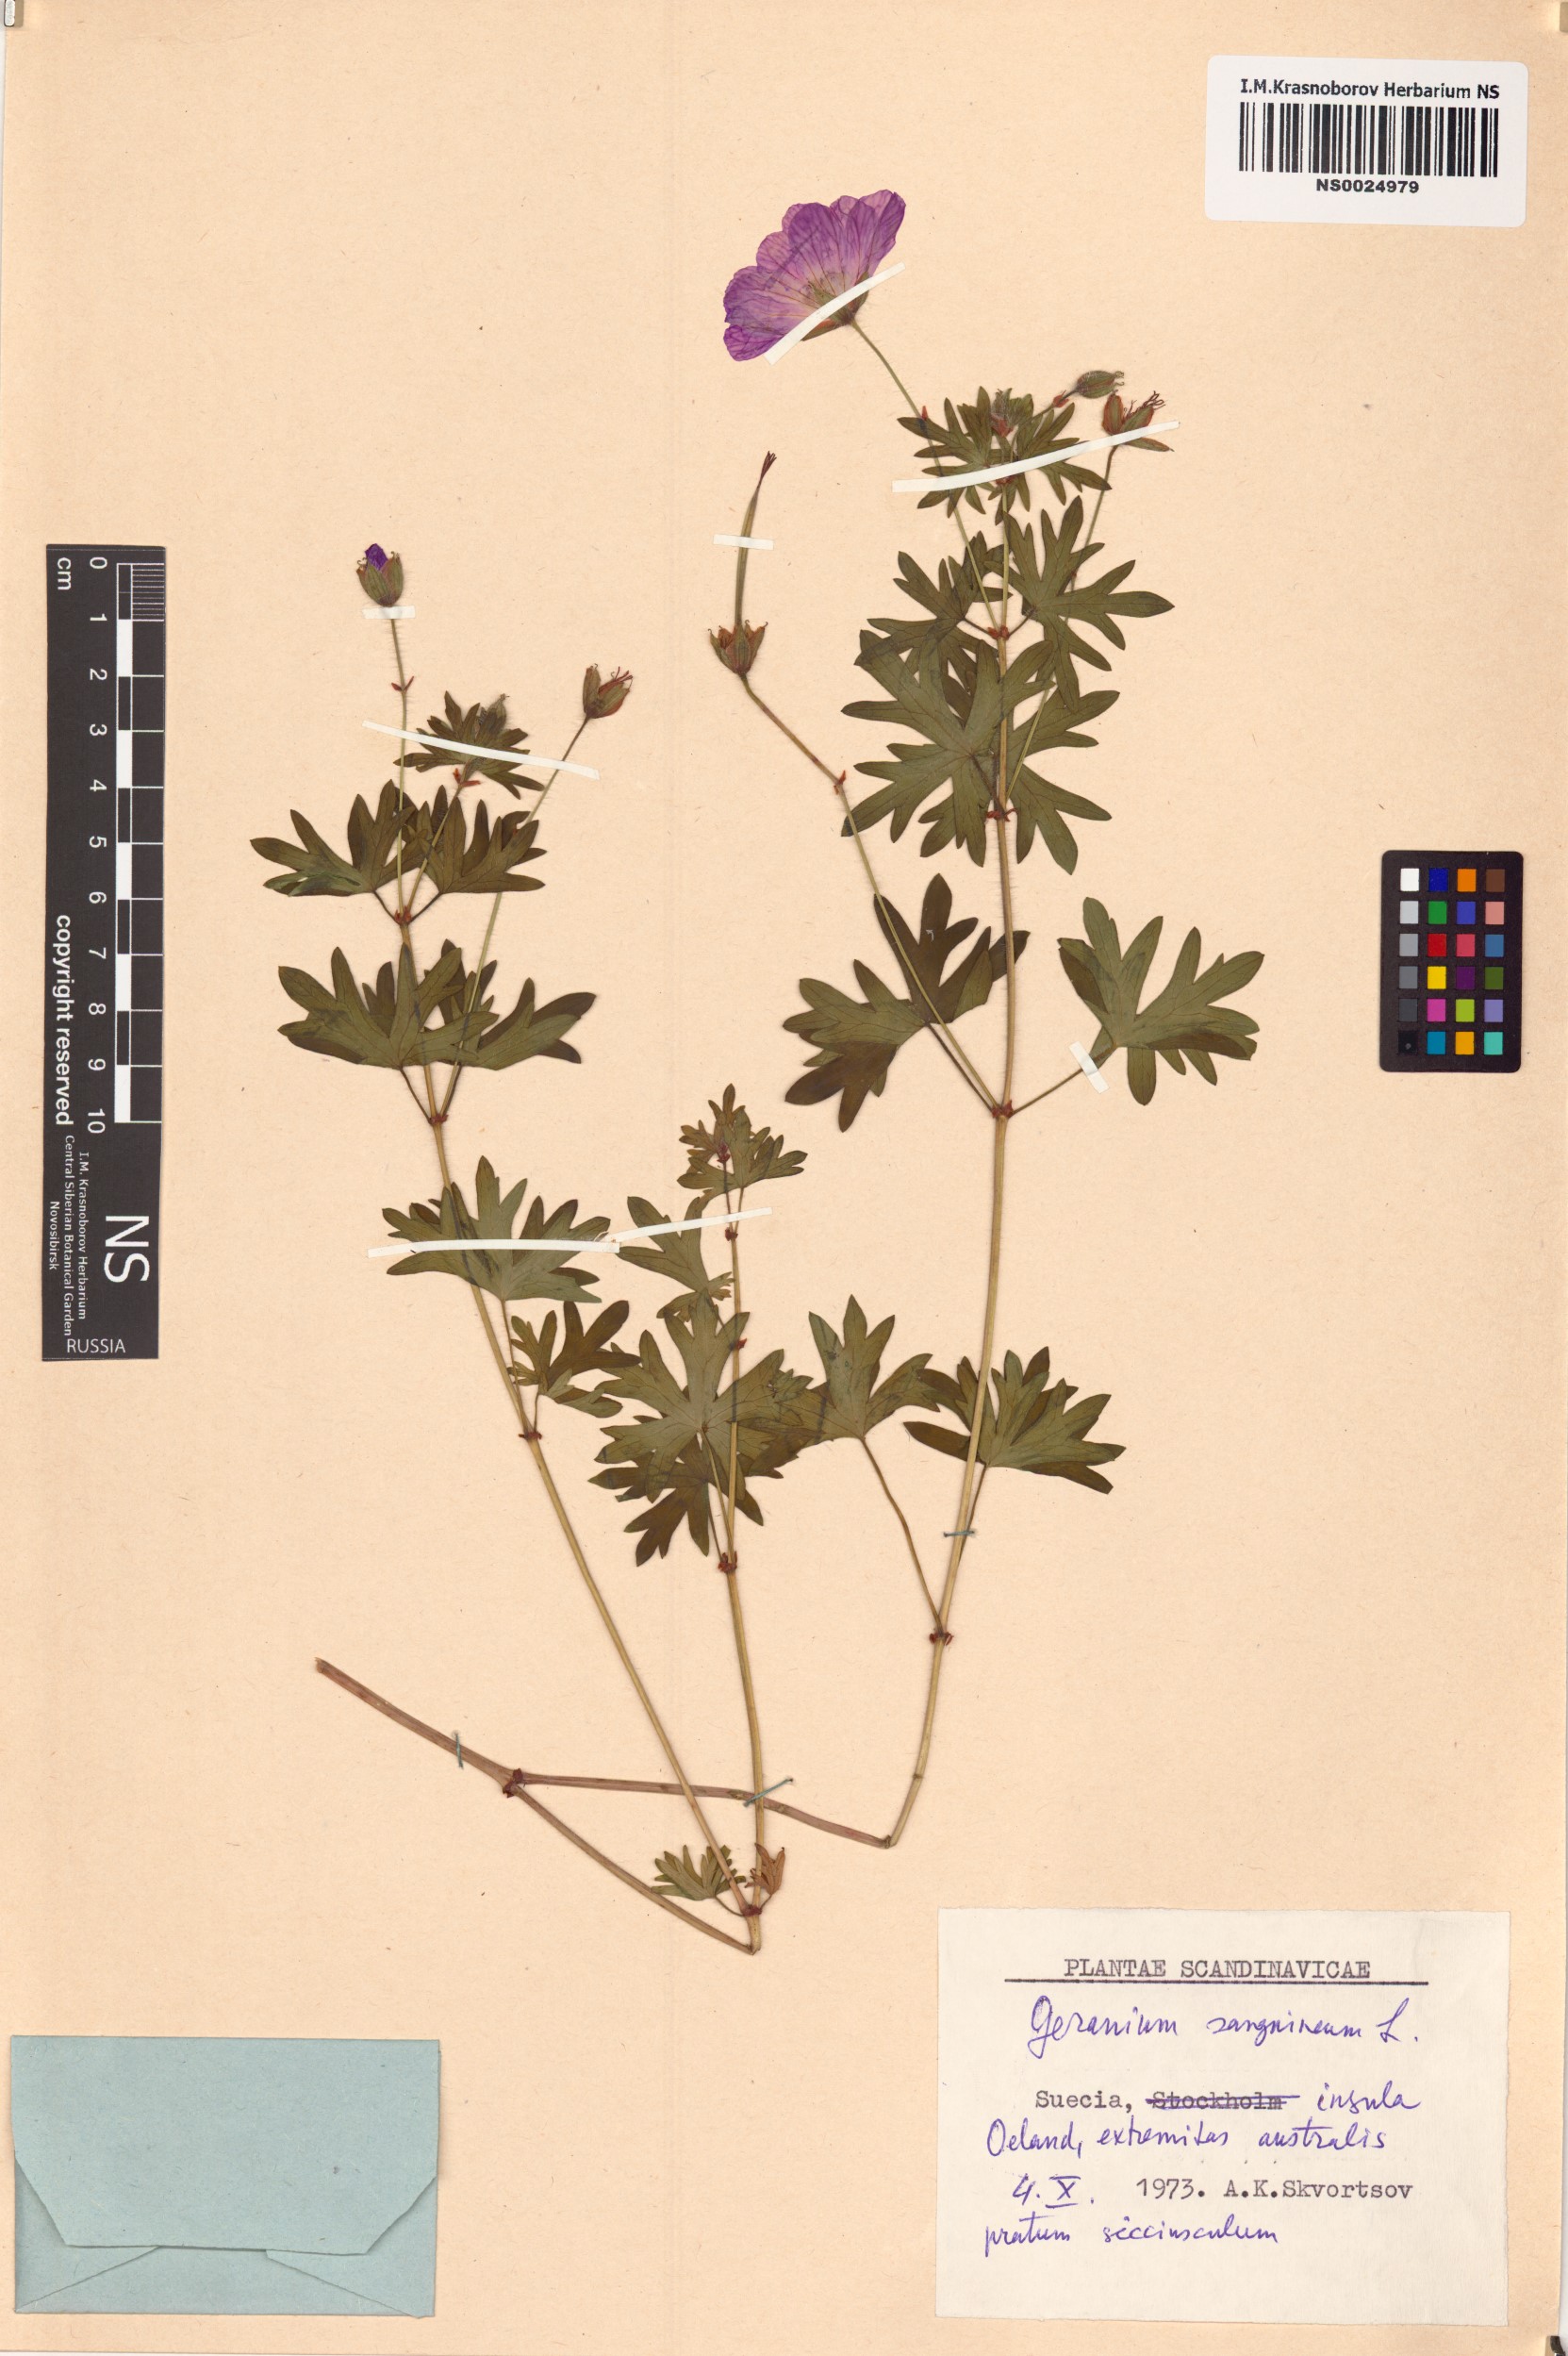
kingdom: Plantae
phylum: Tracheophyta
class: Magnoliopsida
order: Geraniales
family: Geraniaceae
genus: Geranium
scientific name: Geranium sanguineum
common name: Bloody crane's-bill
